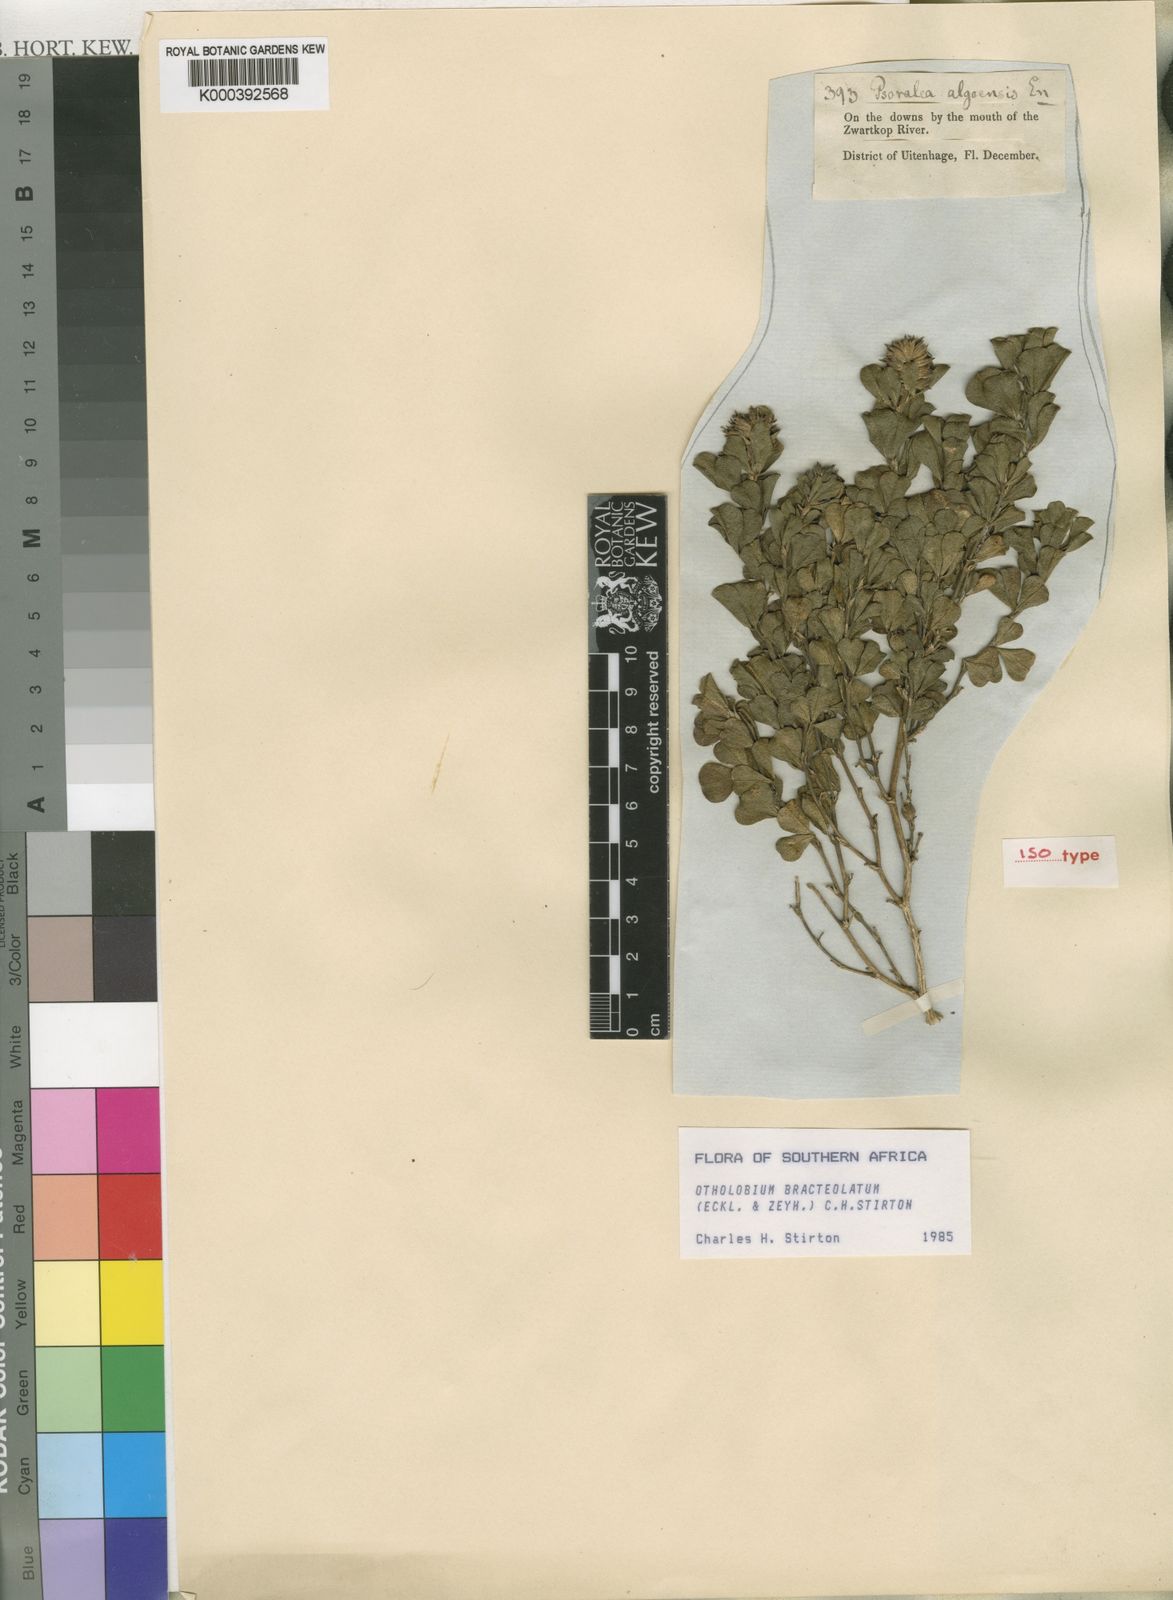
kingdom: Plantae
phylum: Tracheophyta
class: Magnoliopsida
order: Fabales
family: Fabaceae
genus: Psoralea
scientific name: Psoralea bracteolata
